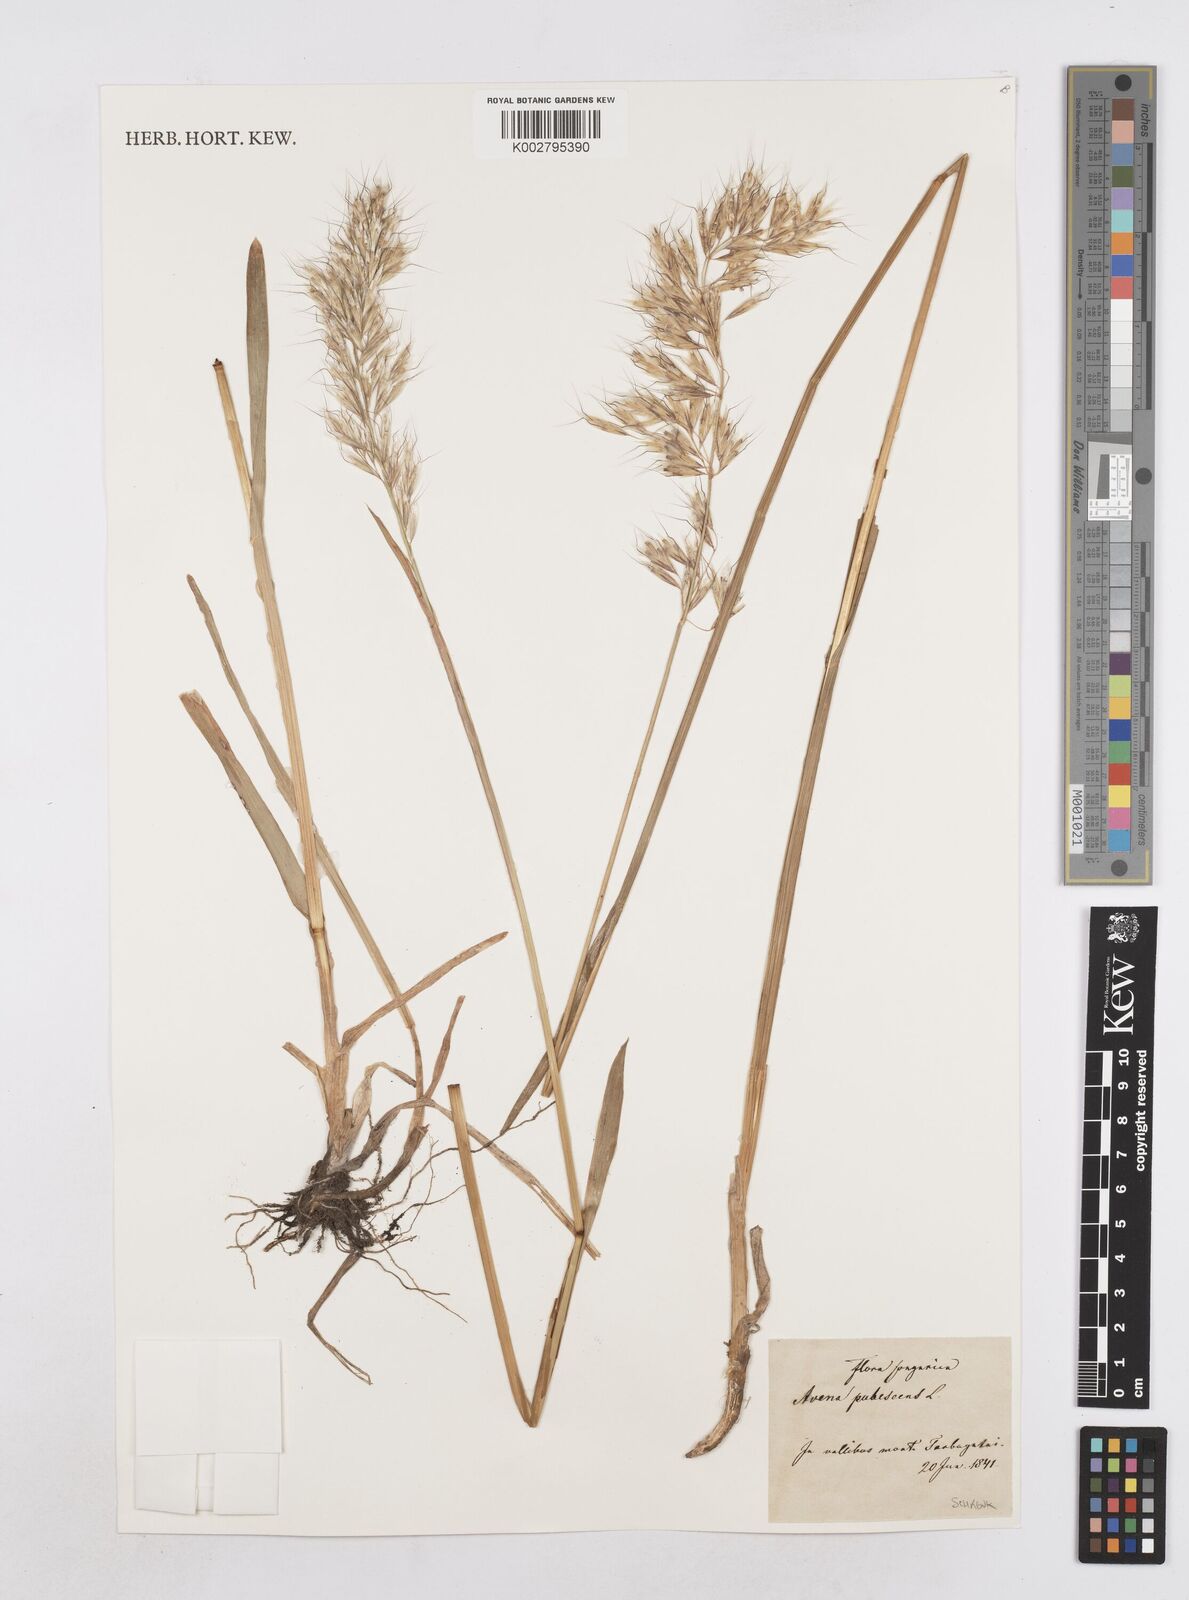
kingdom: Plantae
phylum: Tracheophyta
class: Liliopsida
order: Poales
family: Poaceae
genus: Avenula
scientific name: Avenula pubescens
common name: Downy alpine oatgrass
